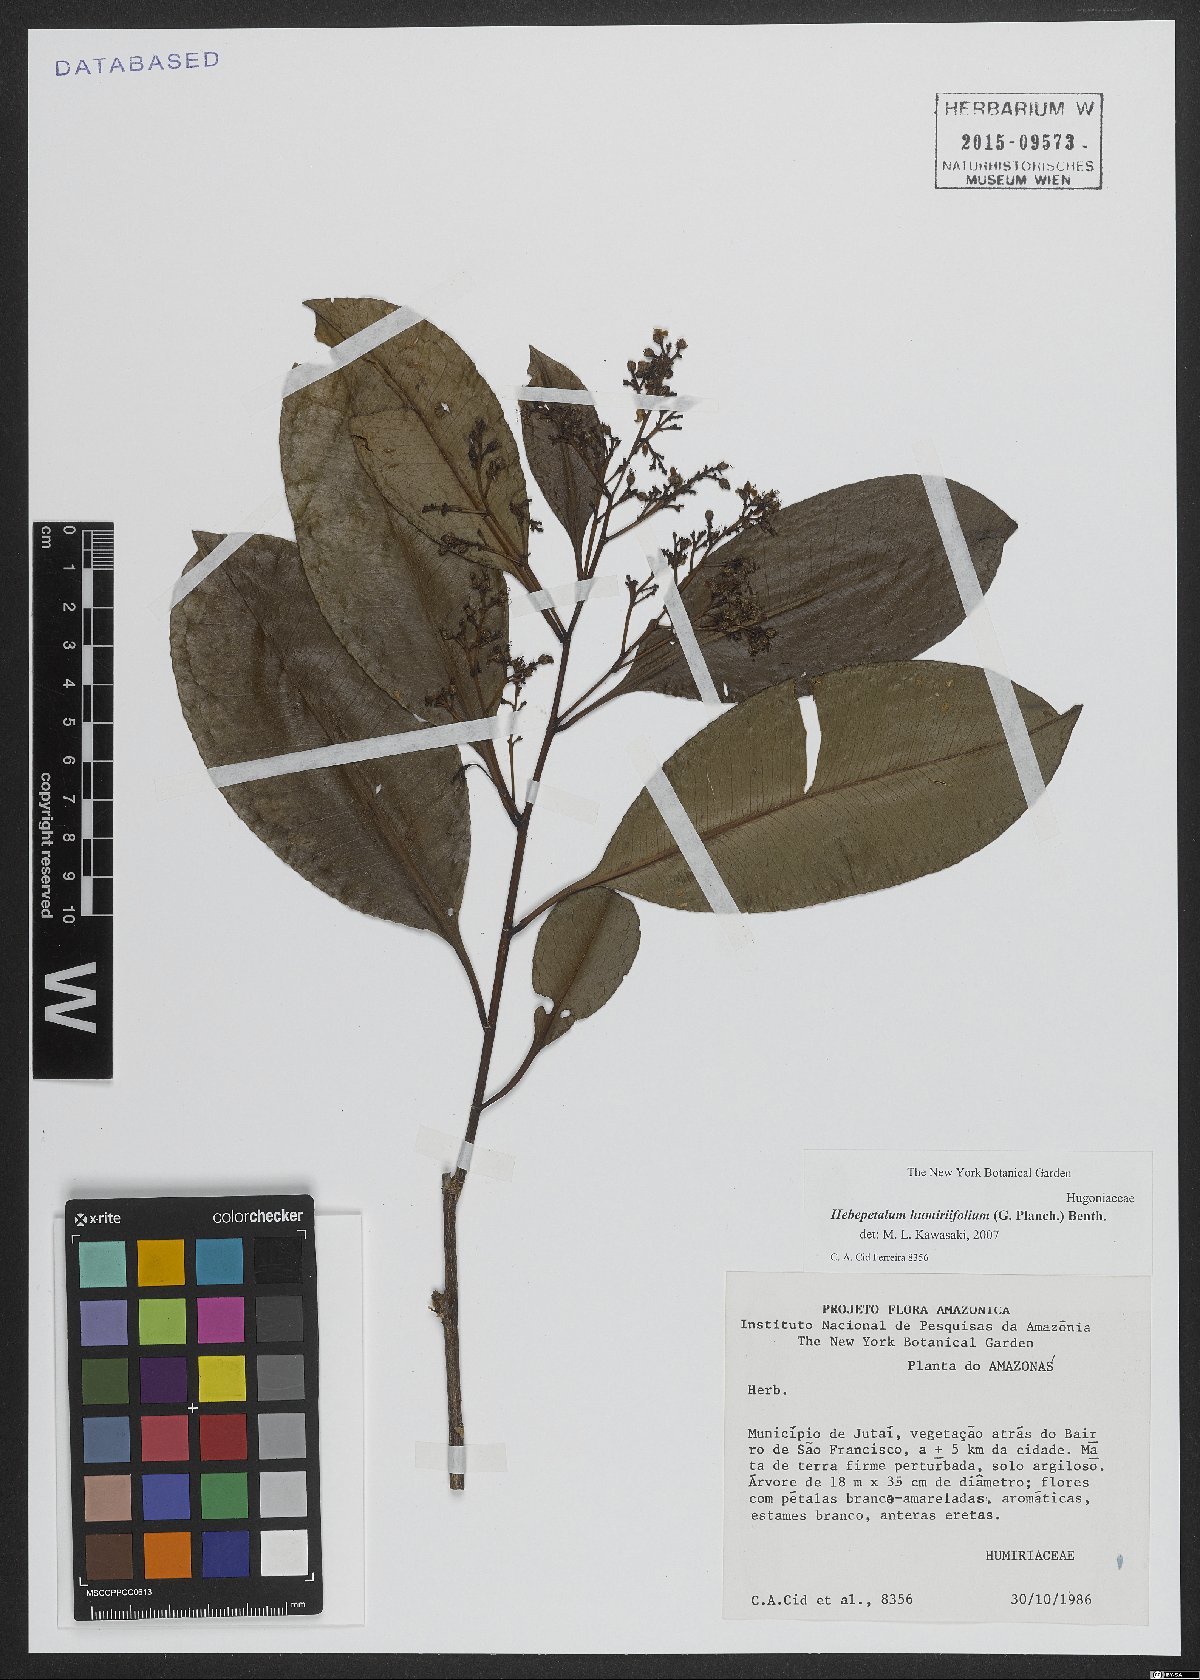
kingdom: Plantae
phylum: Tracheophyta
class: Magnoliopsida
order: Malpighiales
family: Linaceae
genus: Hebepetalum
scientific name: Hebepetalum humiriifolium
